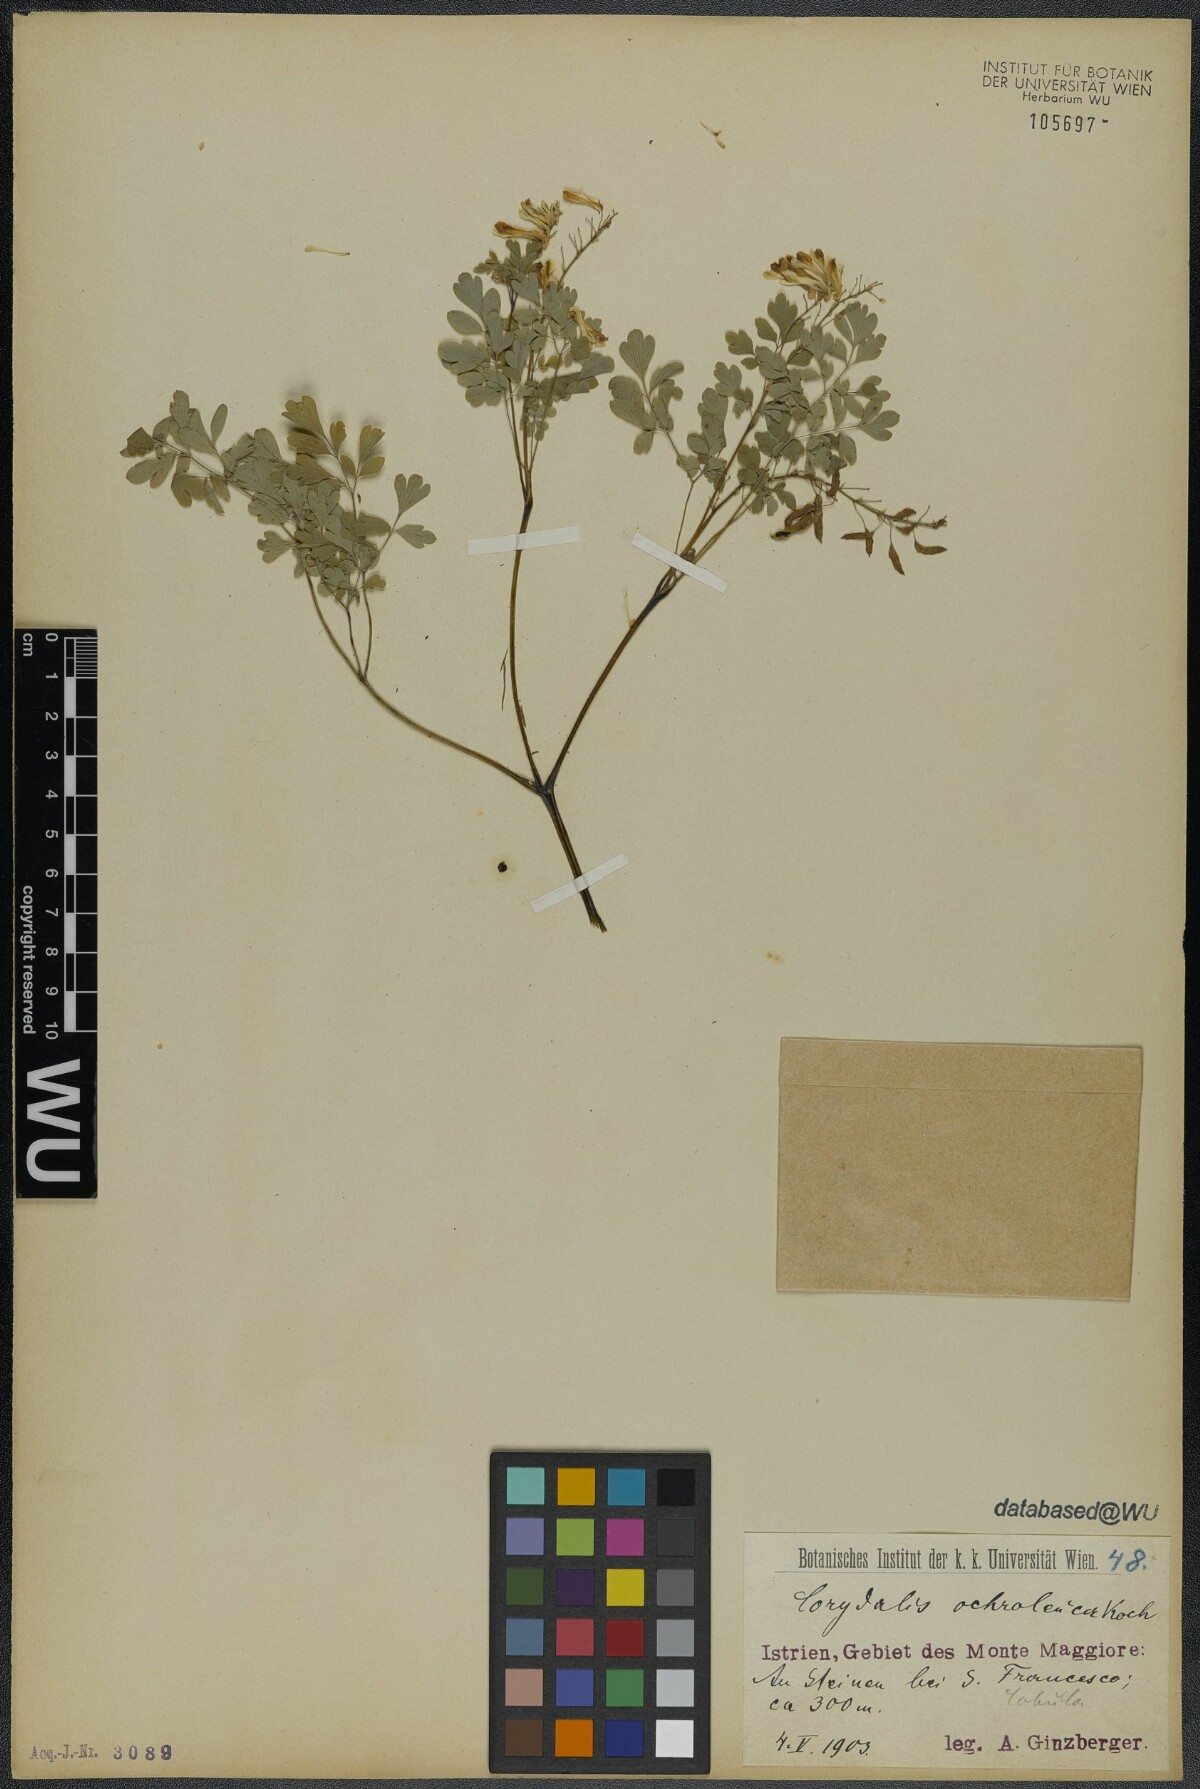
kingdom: Plantae
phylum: Tracheophyta
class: Magnoliopsida
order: Ranunculales
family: Papaveraceae
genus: Pseudofumaria
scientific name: Pseudofumaria alba
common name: Pale corydalis
